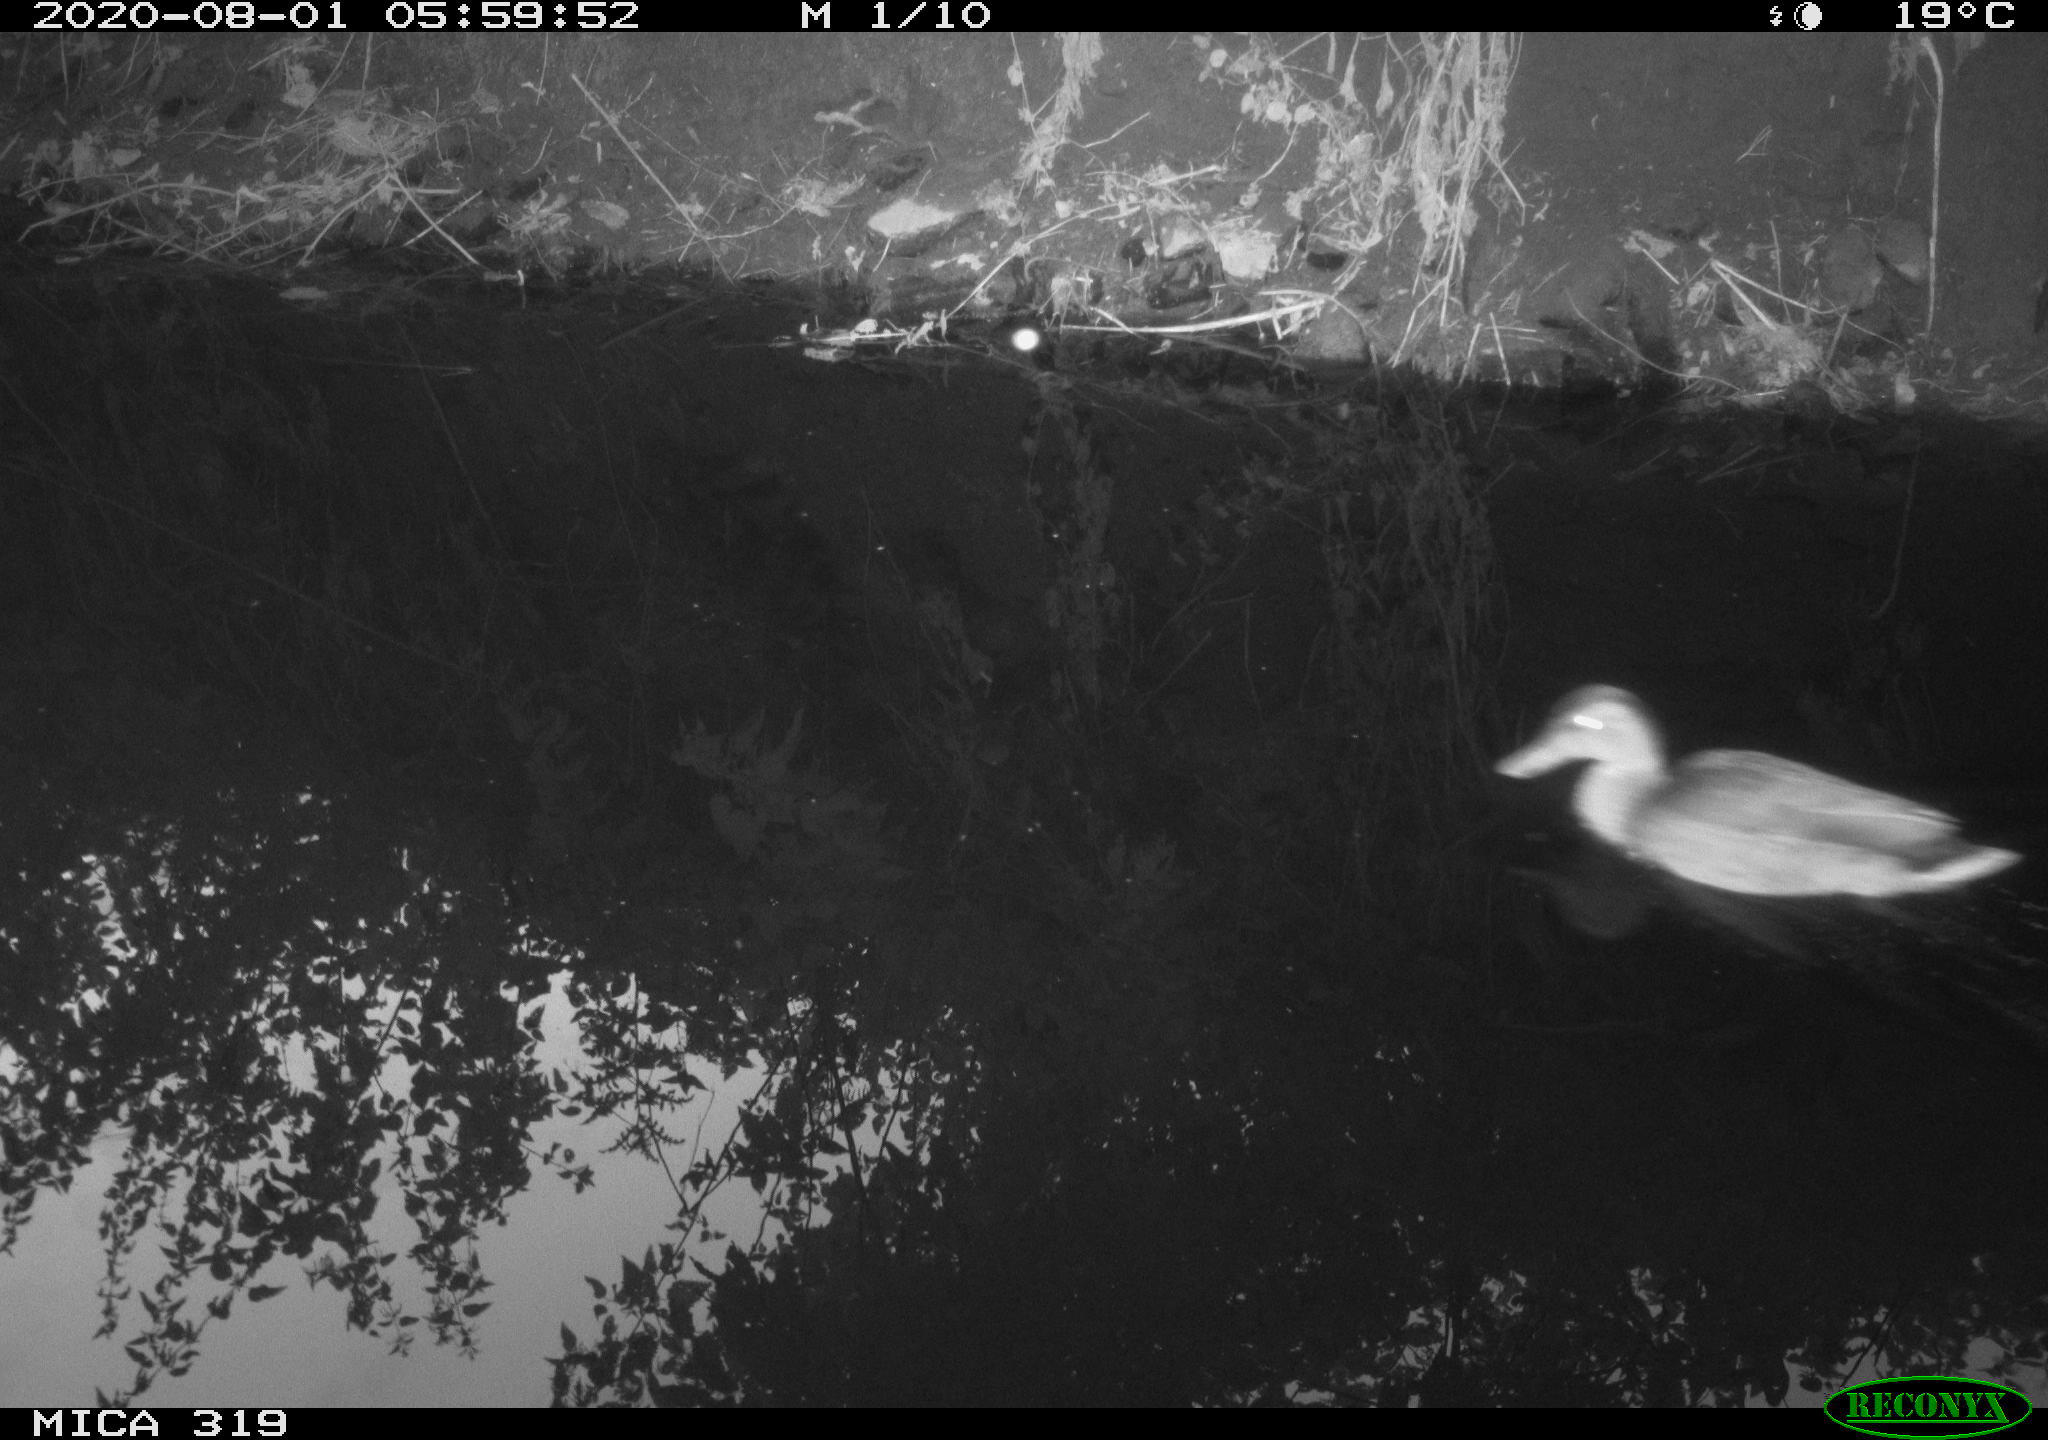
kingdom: Animalia
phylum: Chordata
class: Aves
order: Anseriformes
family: Anatidae
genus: Anas
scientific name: Anas platyrhynchos
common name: Mallard
